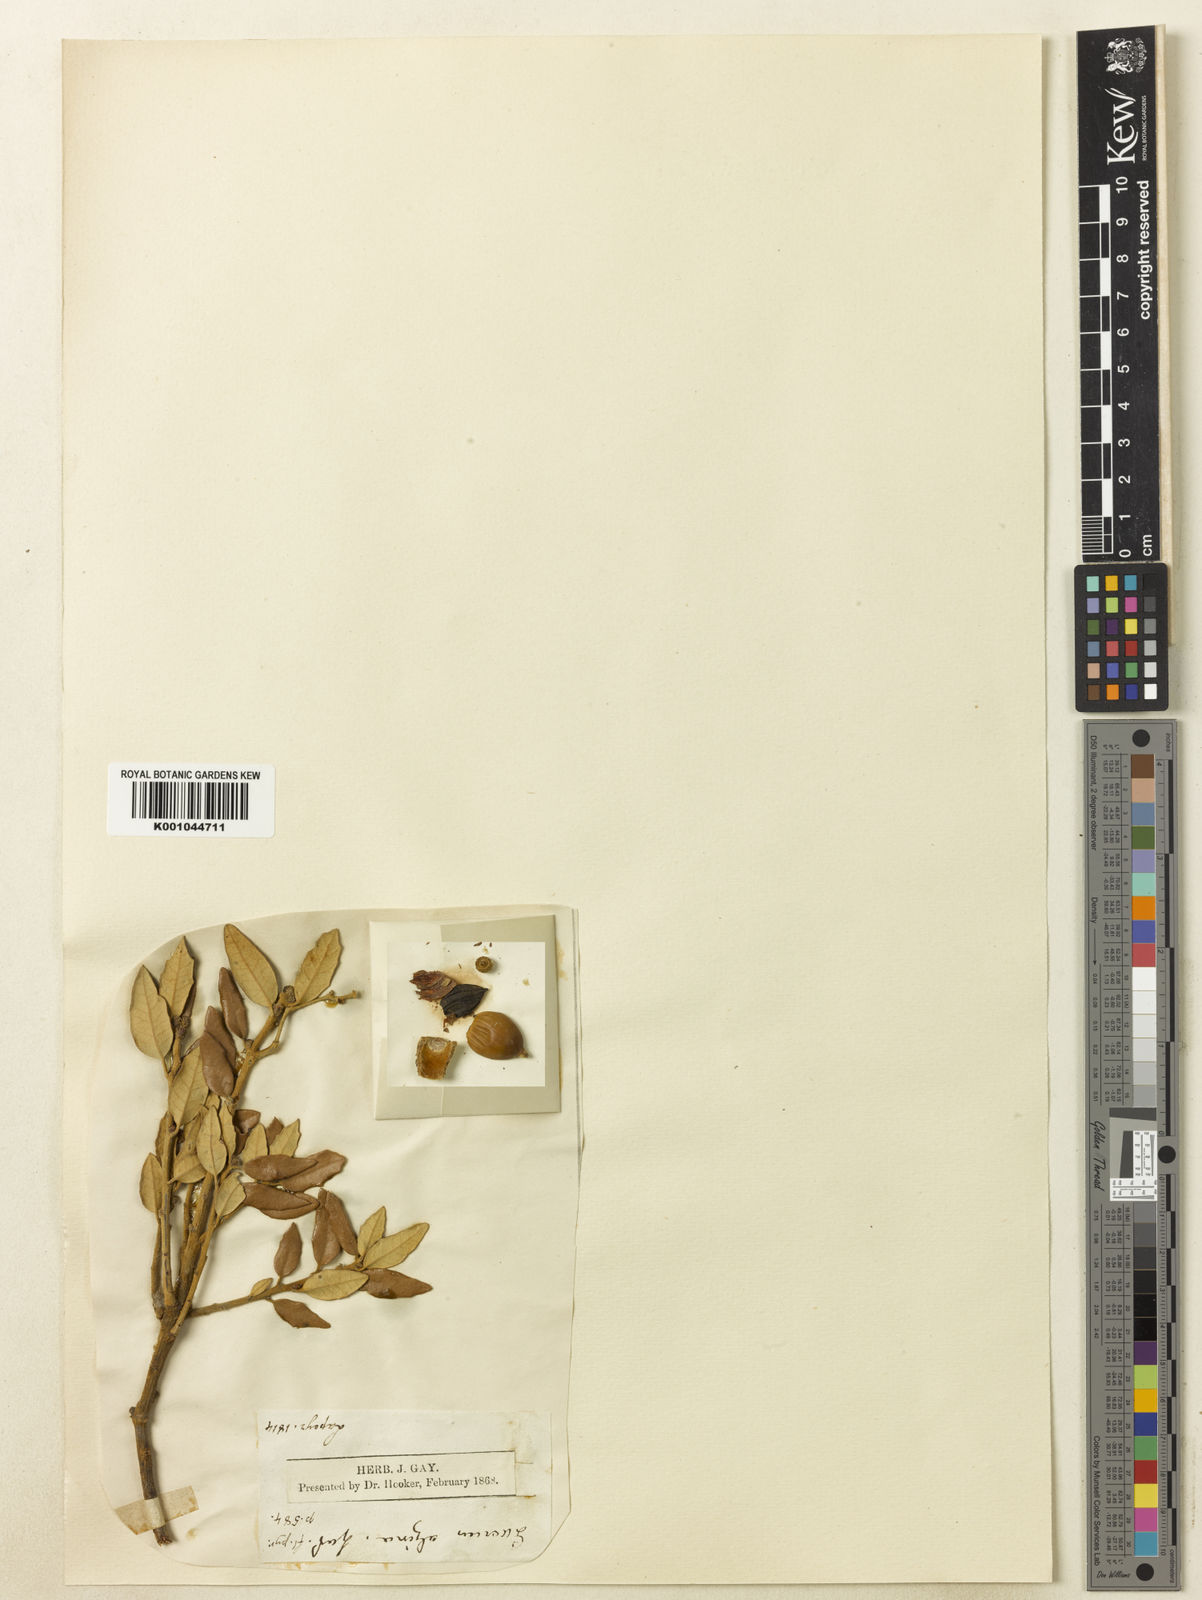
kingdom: Plantae
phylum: Tracheophyta
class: Magnoliopsida
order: Fagales
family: Fagaceae
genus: Quercus
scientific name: Quercus ilex
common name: Evergreen oak
